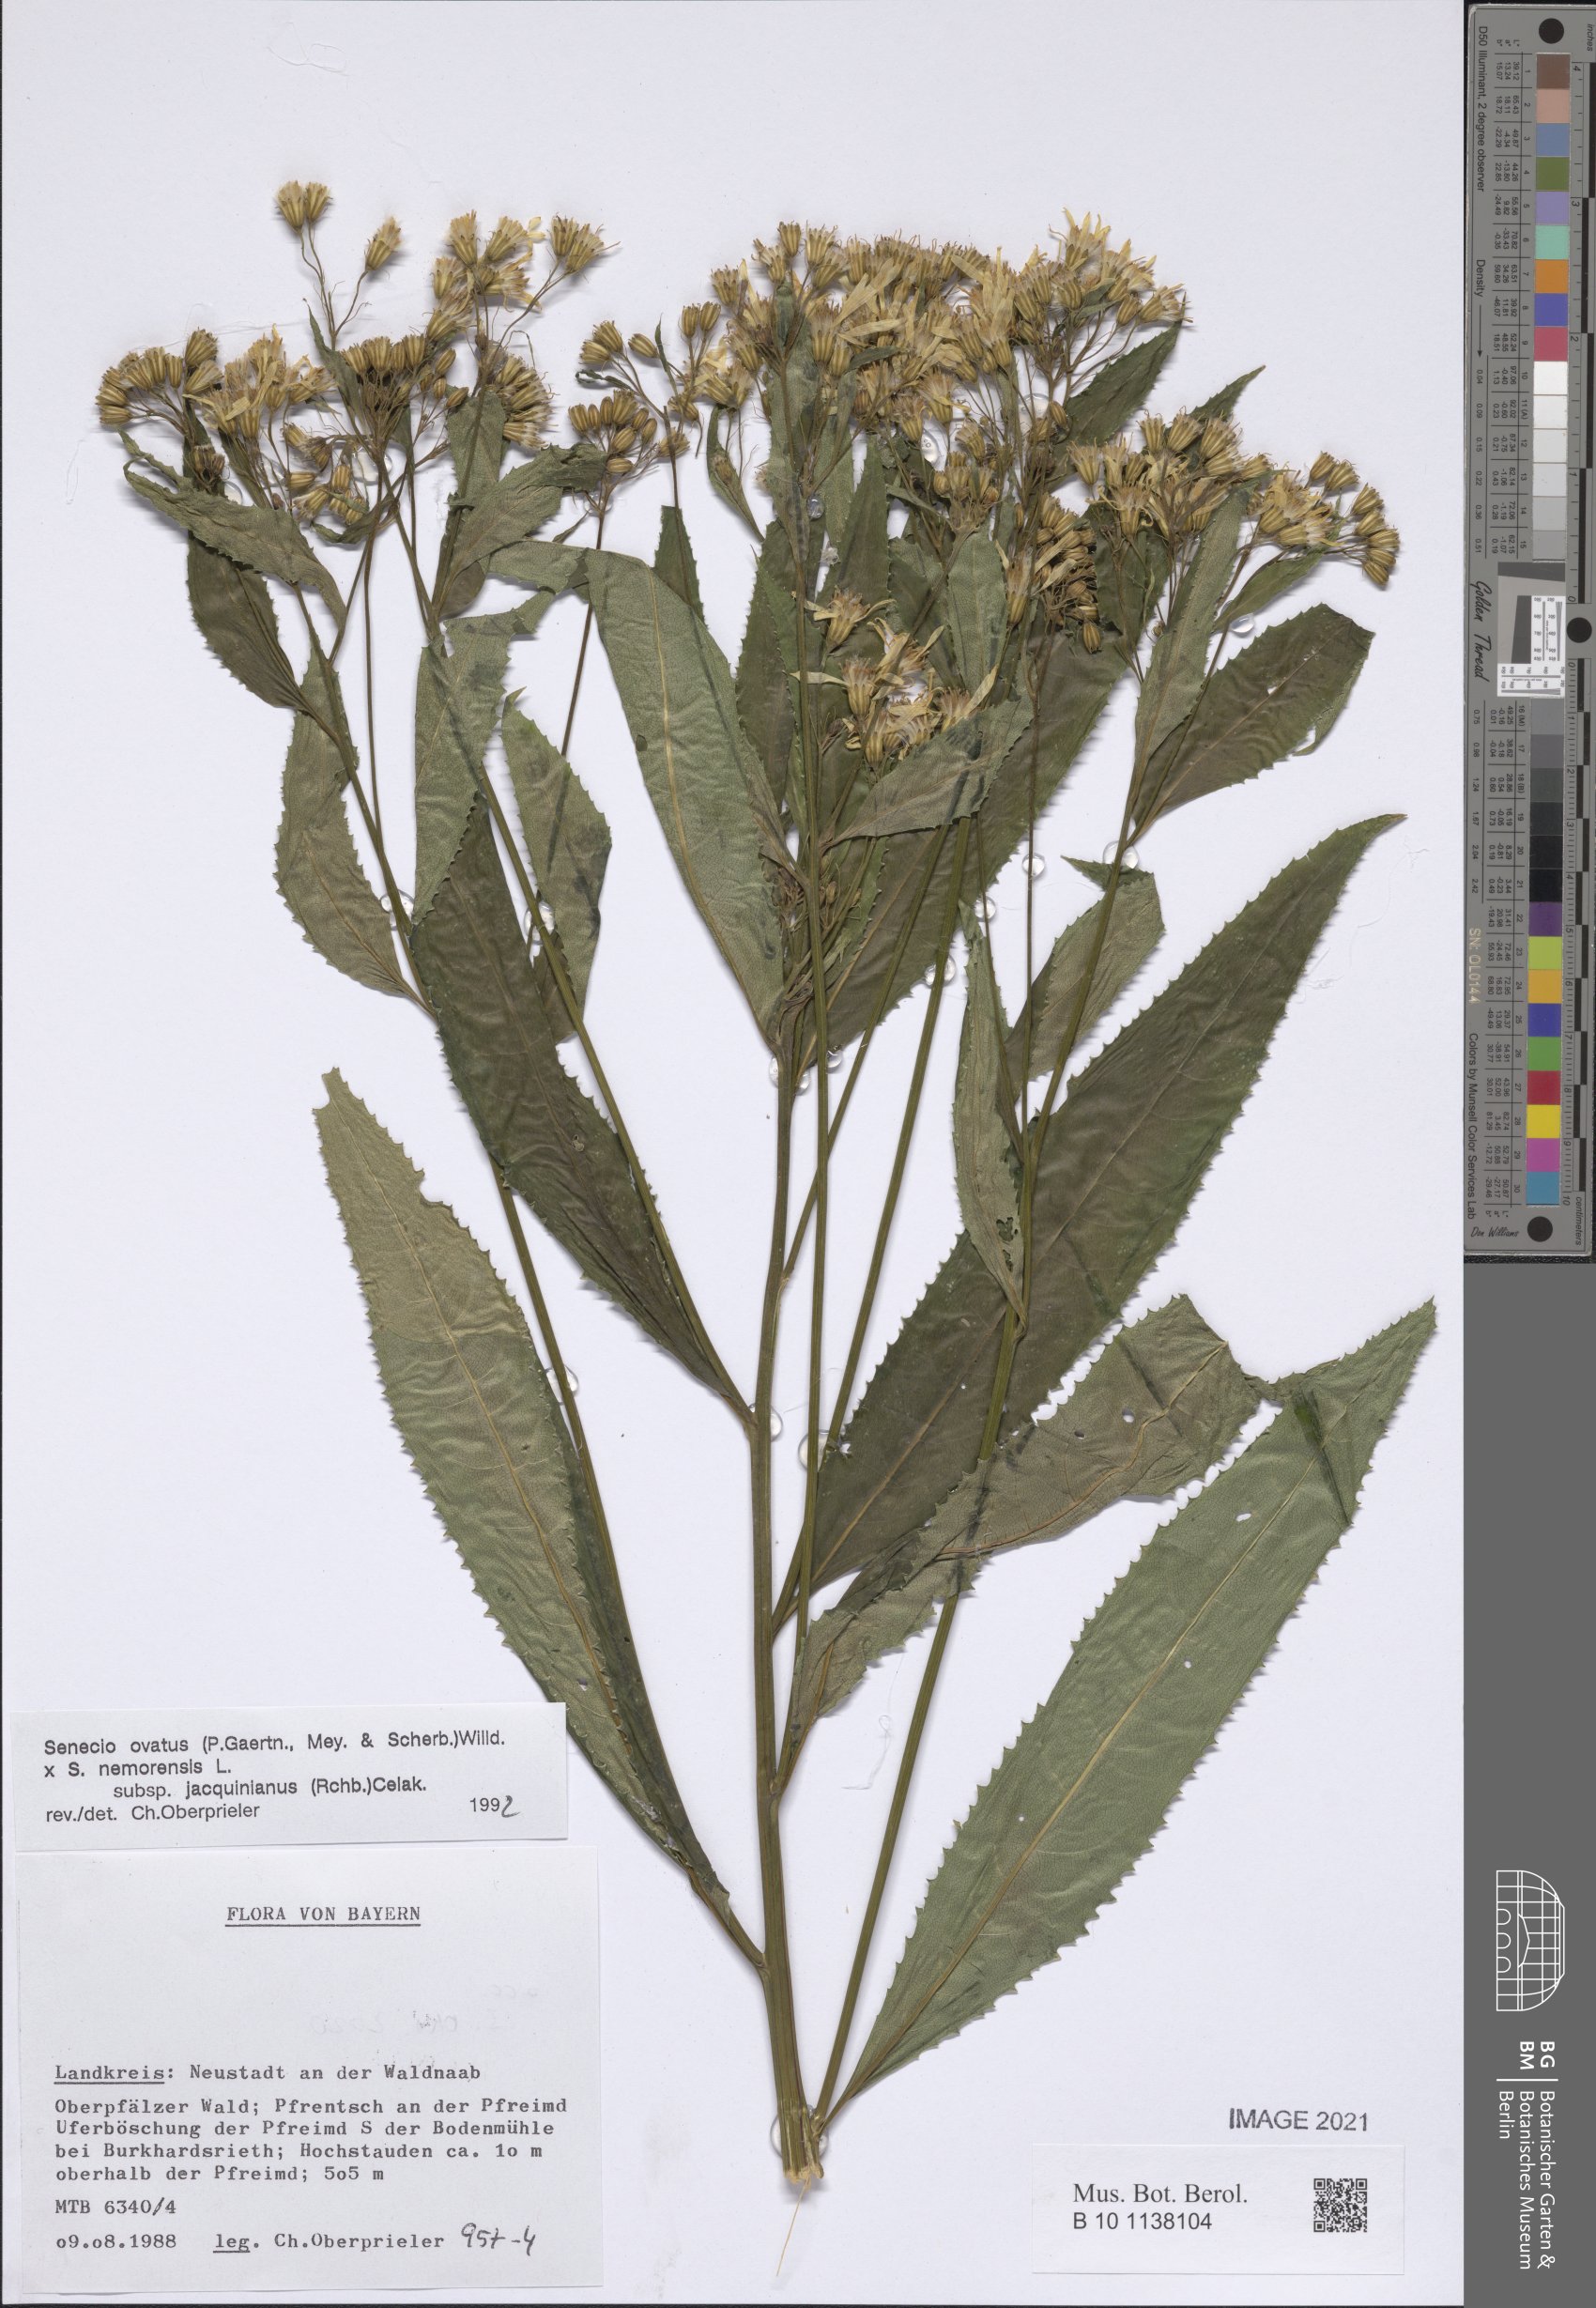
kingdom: Plantae
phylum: Tracheophyta
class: Magnoliopsida
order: Asterales
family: Asteraceae
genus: Senecio
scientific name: Senecio ovatus
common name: Wood ragwort
